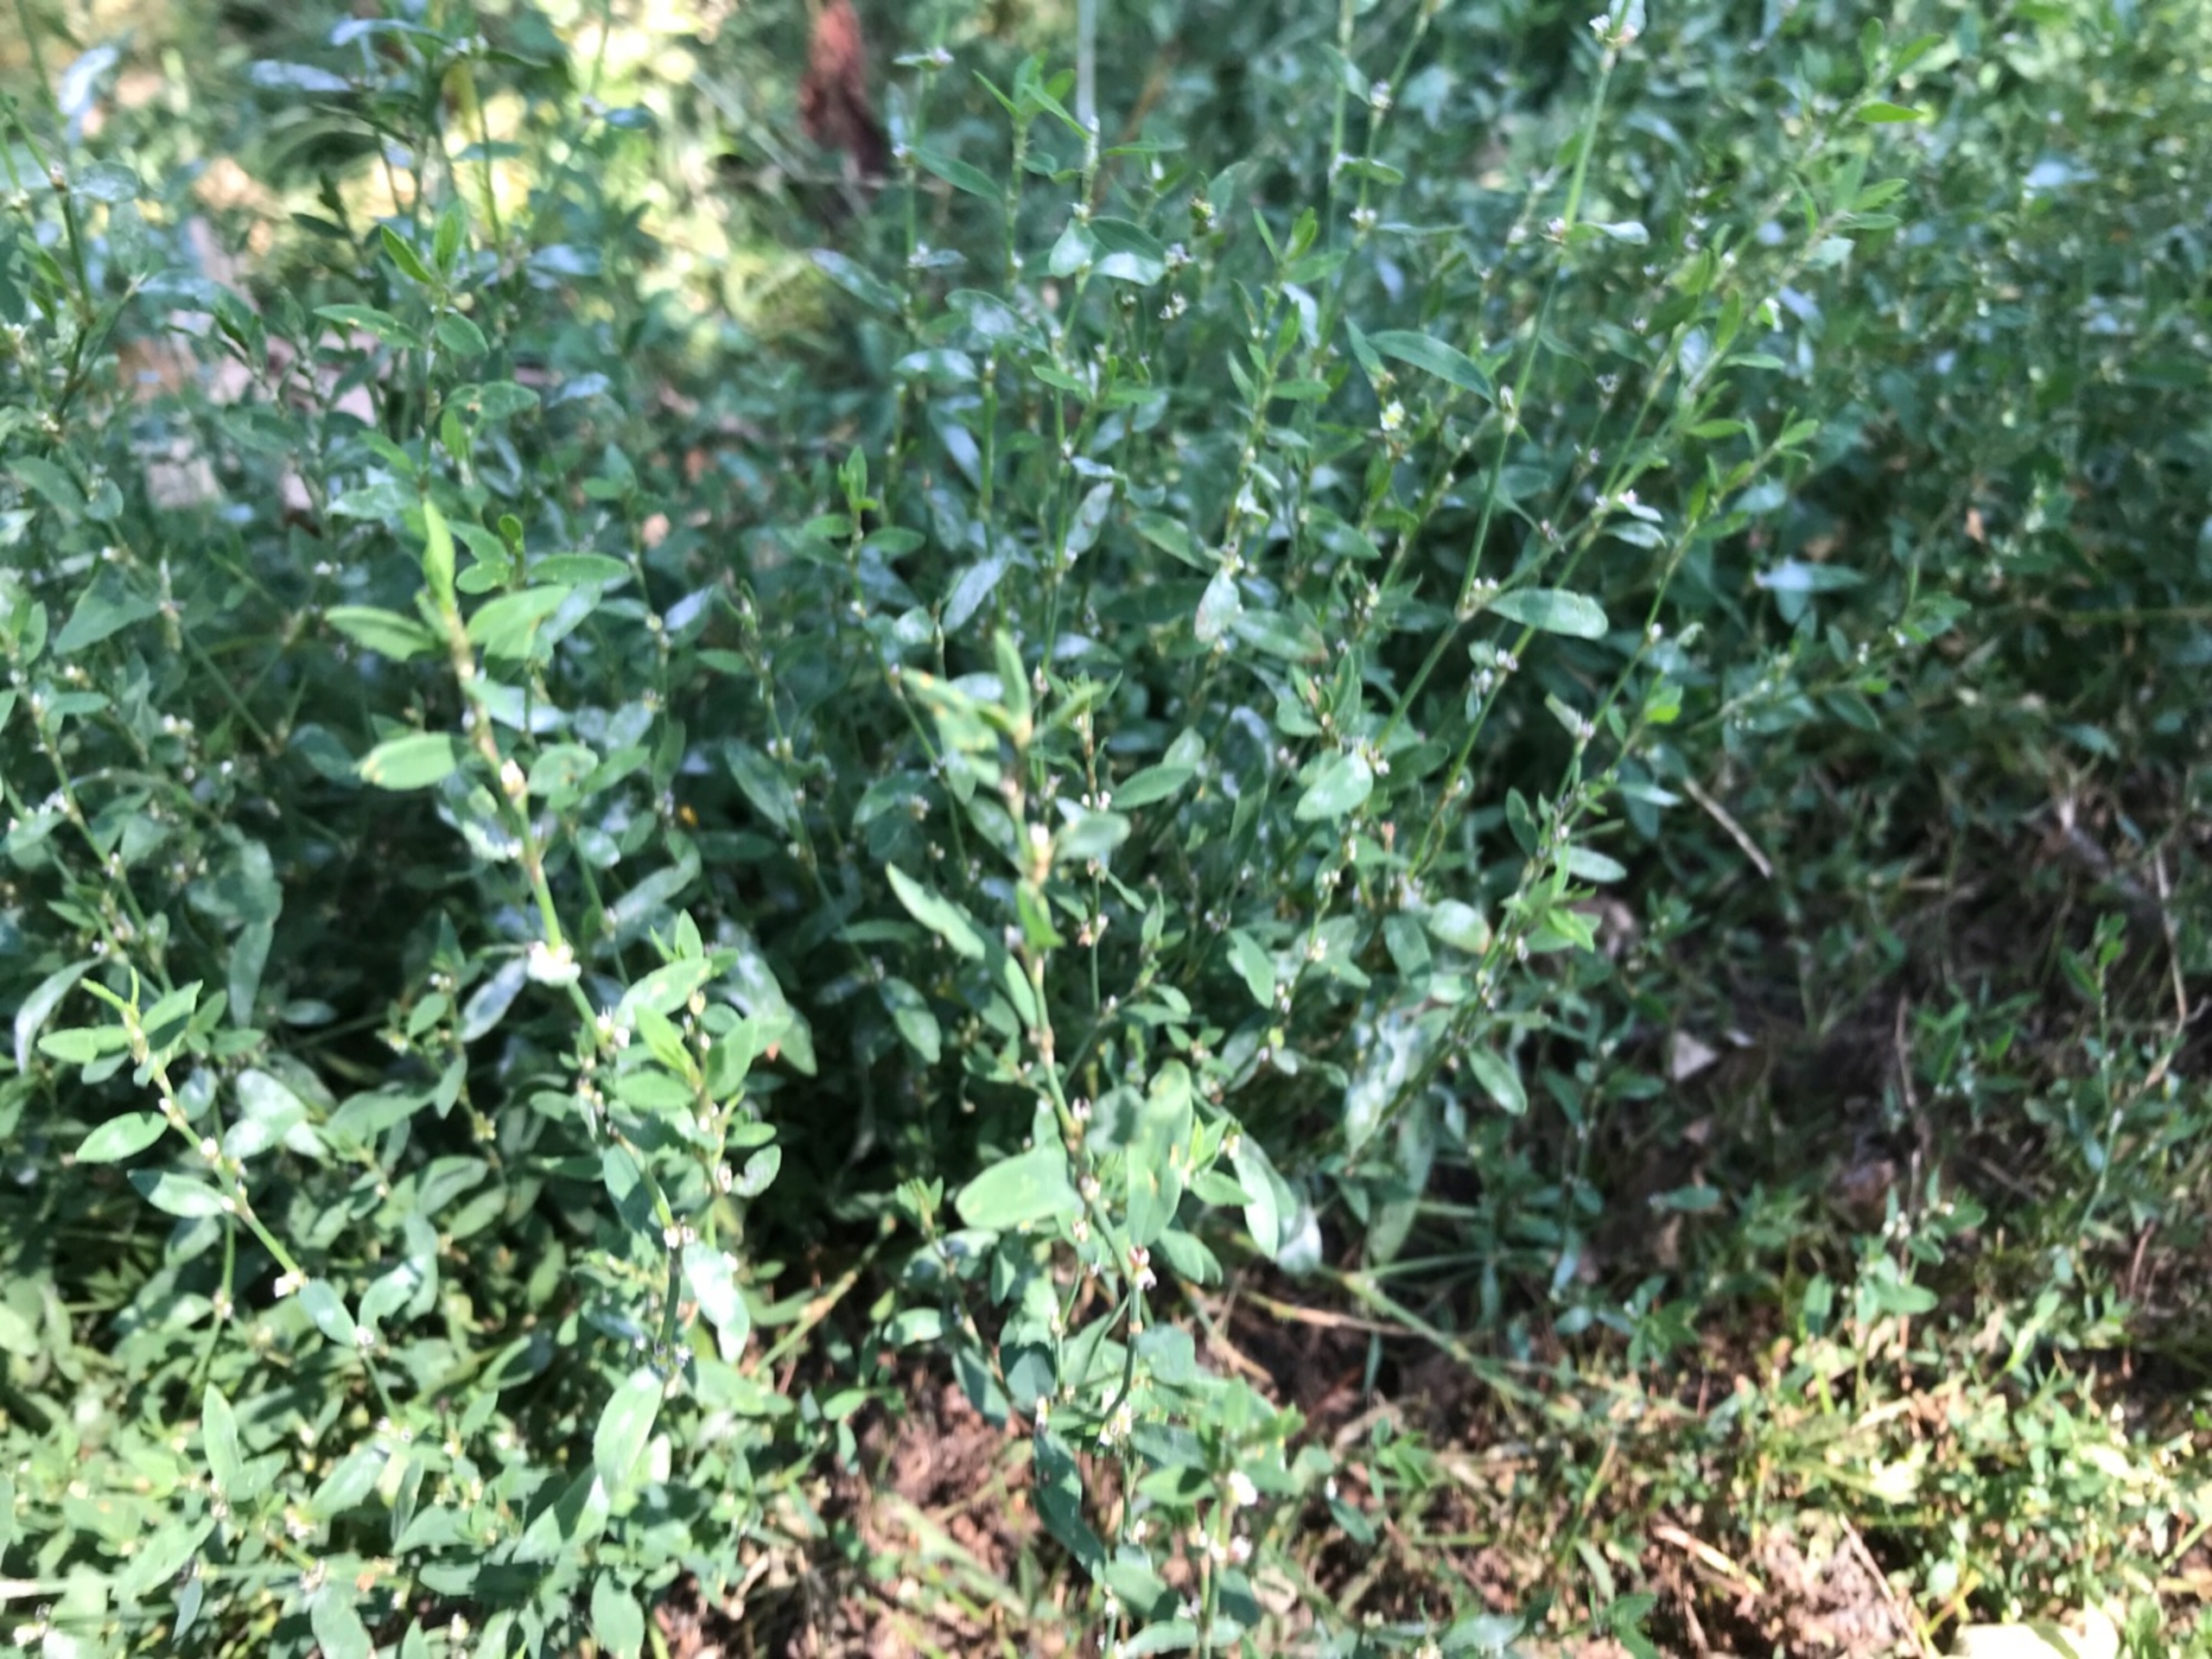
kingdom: Plantae
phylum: Tracheophyta
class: Magnoliopsida
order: Caryophyllales
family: Polygonaceae
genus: Polygonum
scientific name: Polygonum aviculare
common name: Vej-pileurt
